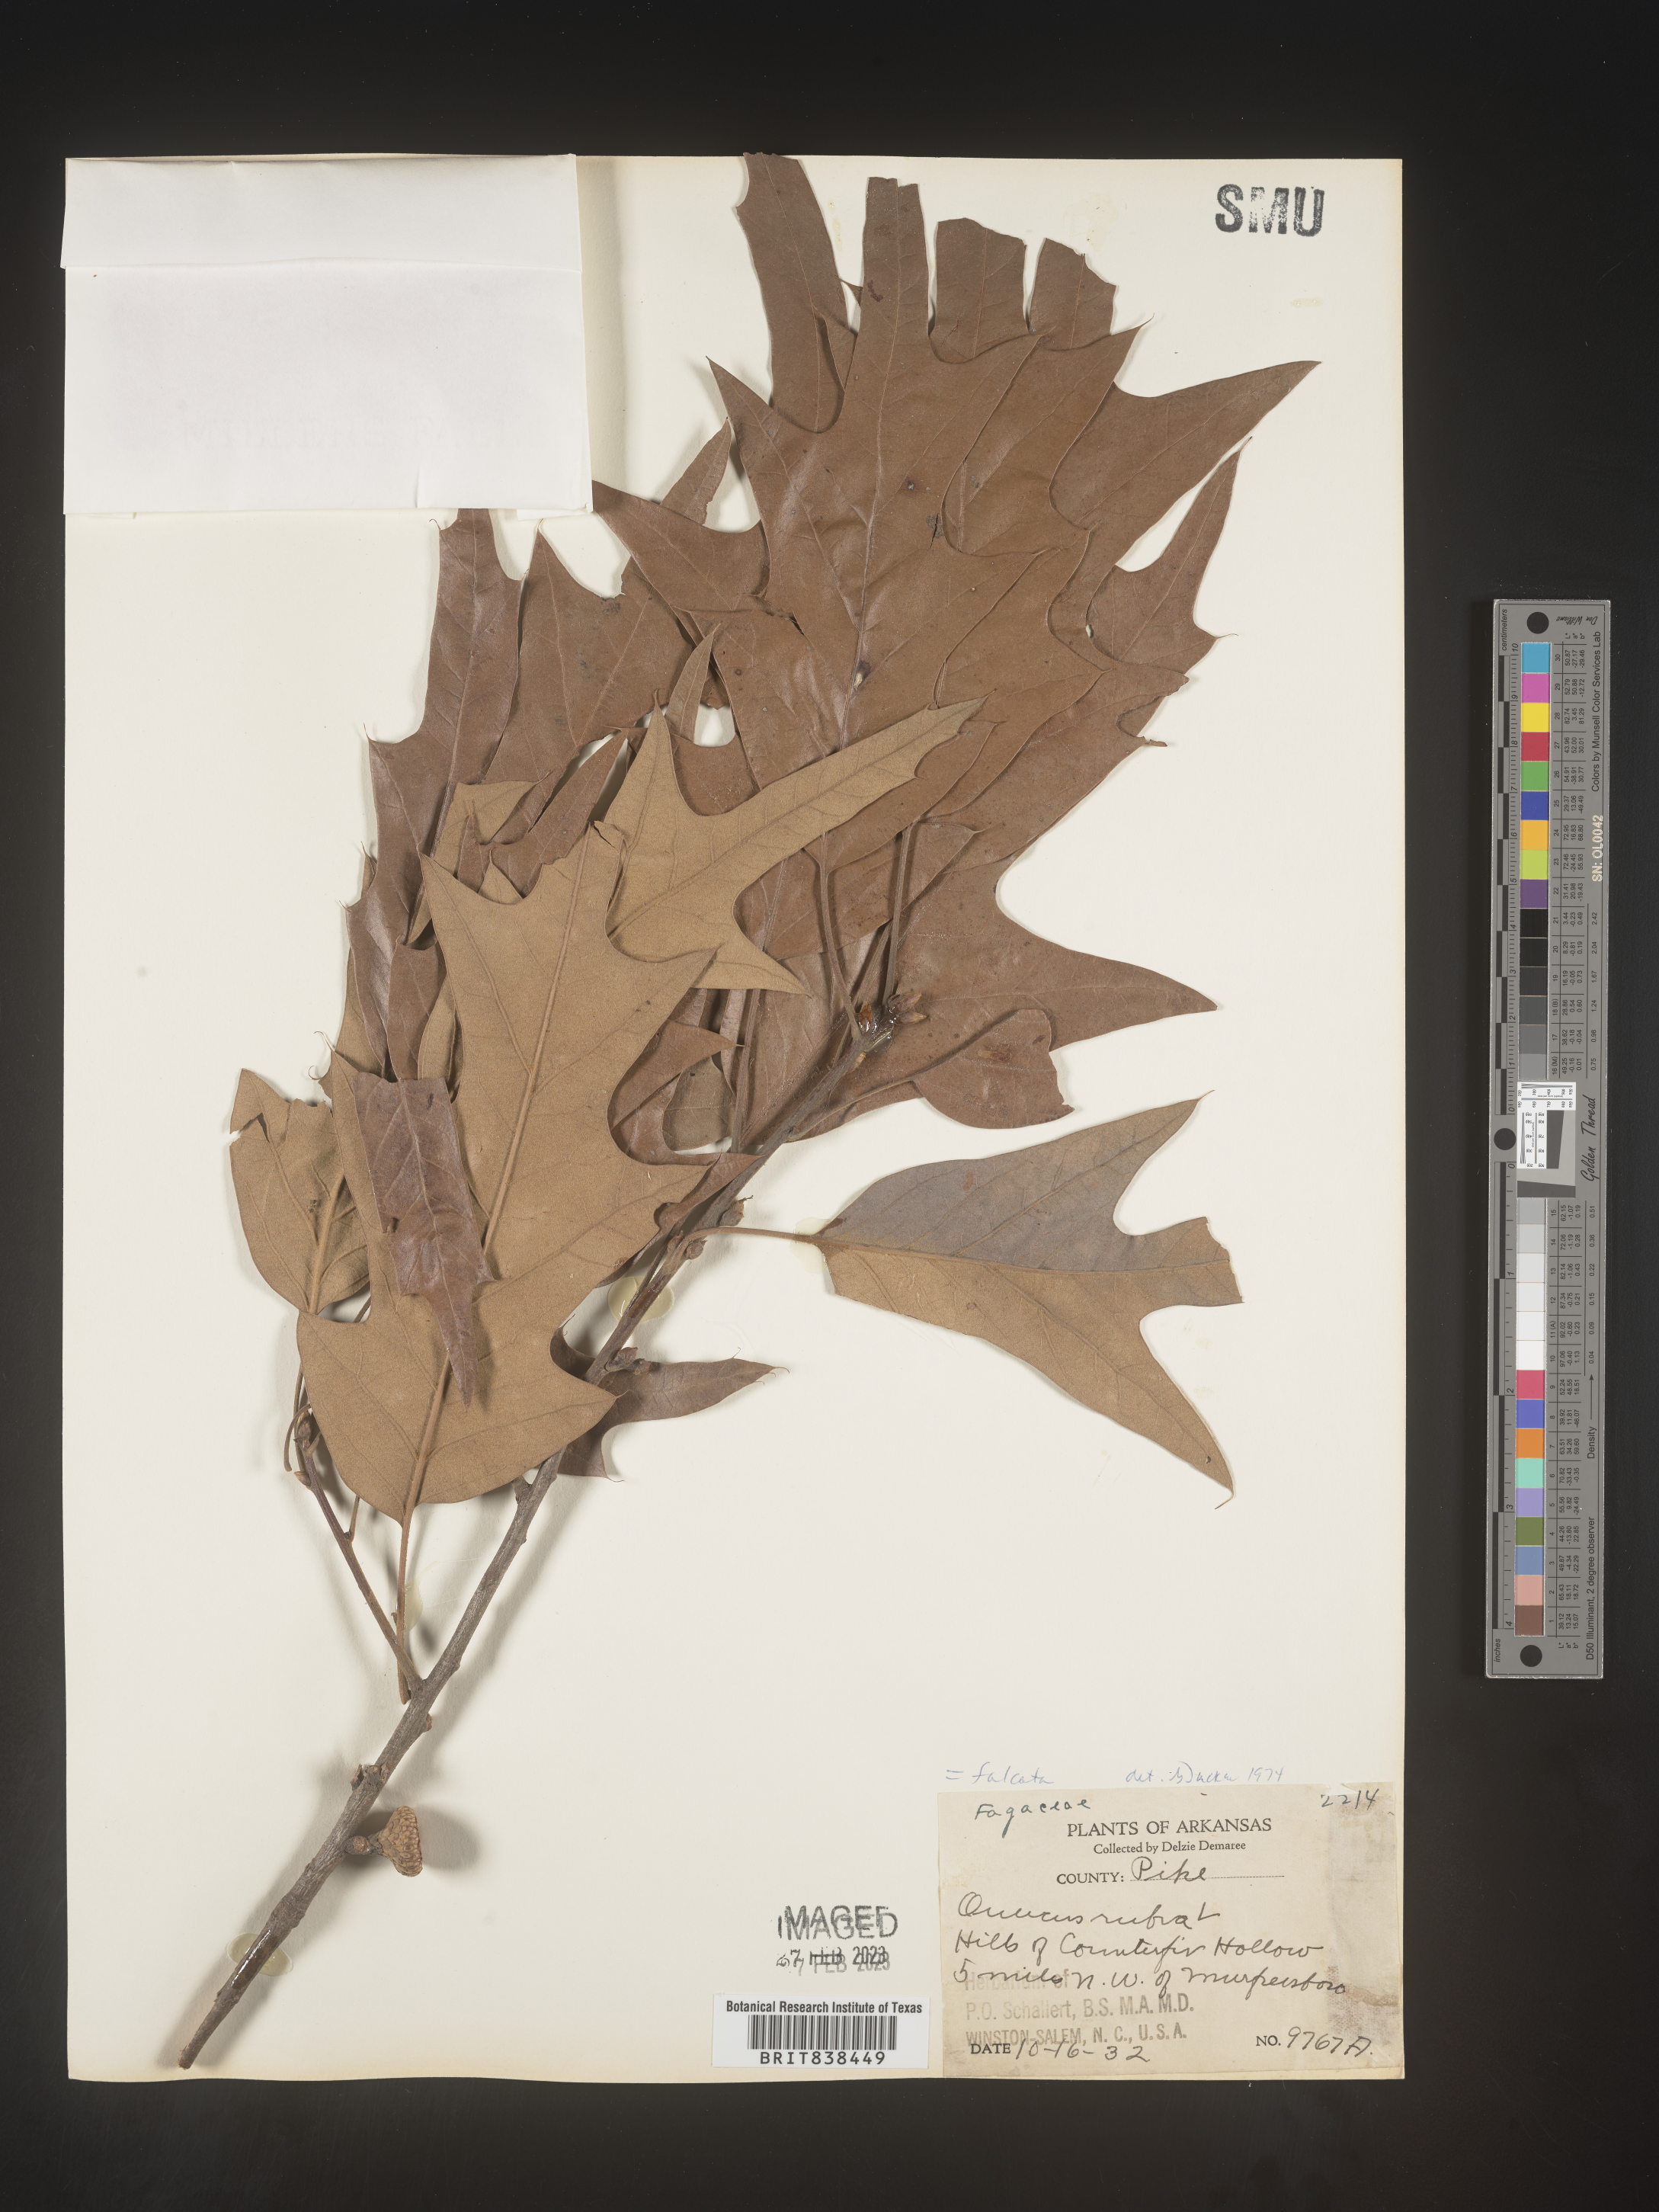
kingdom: Plantae
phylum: Tracheophyta
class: Magnoliopsida
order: Fagales
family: Fagaceae
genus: Quercus
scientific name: Quercus falcata
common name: Southern red oak
